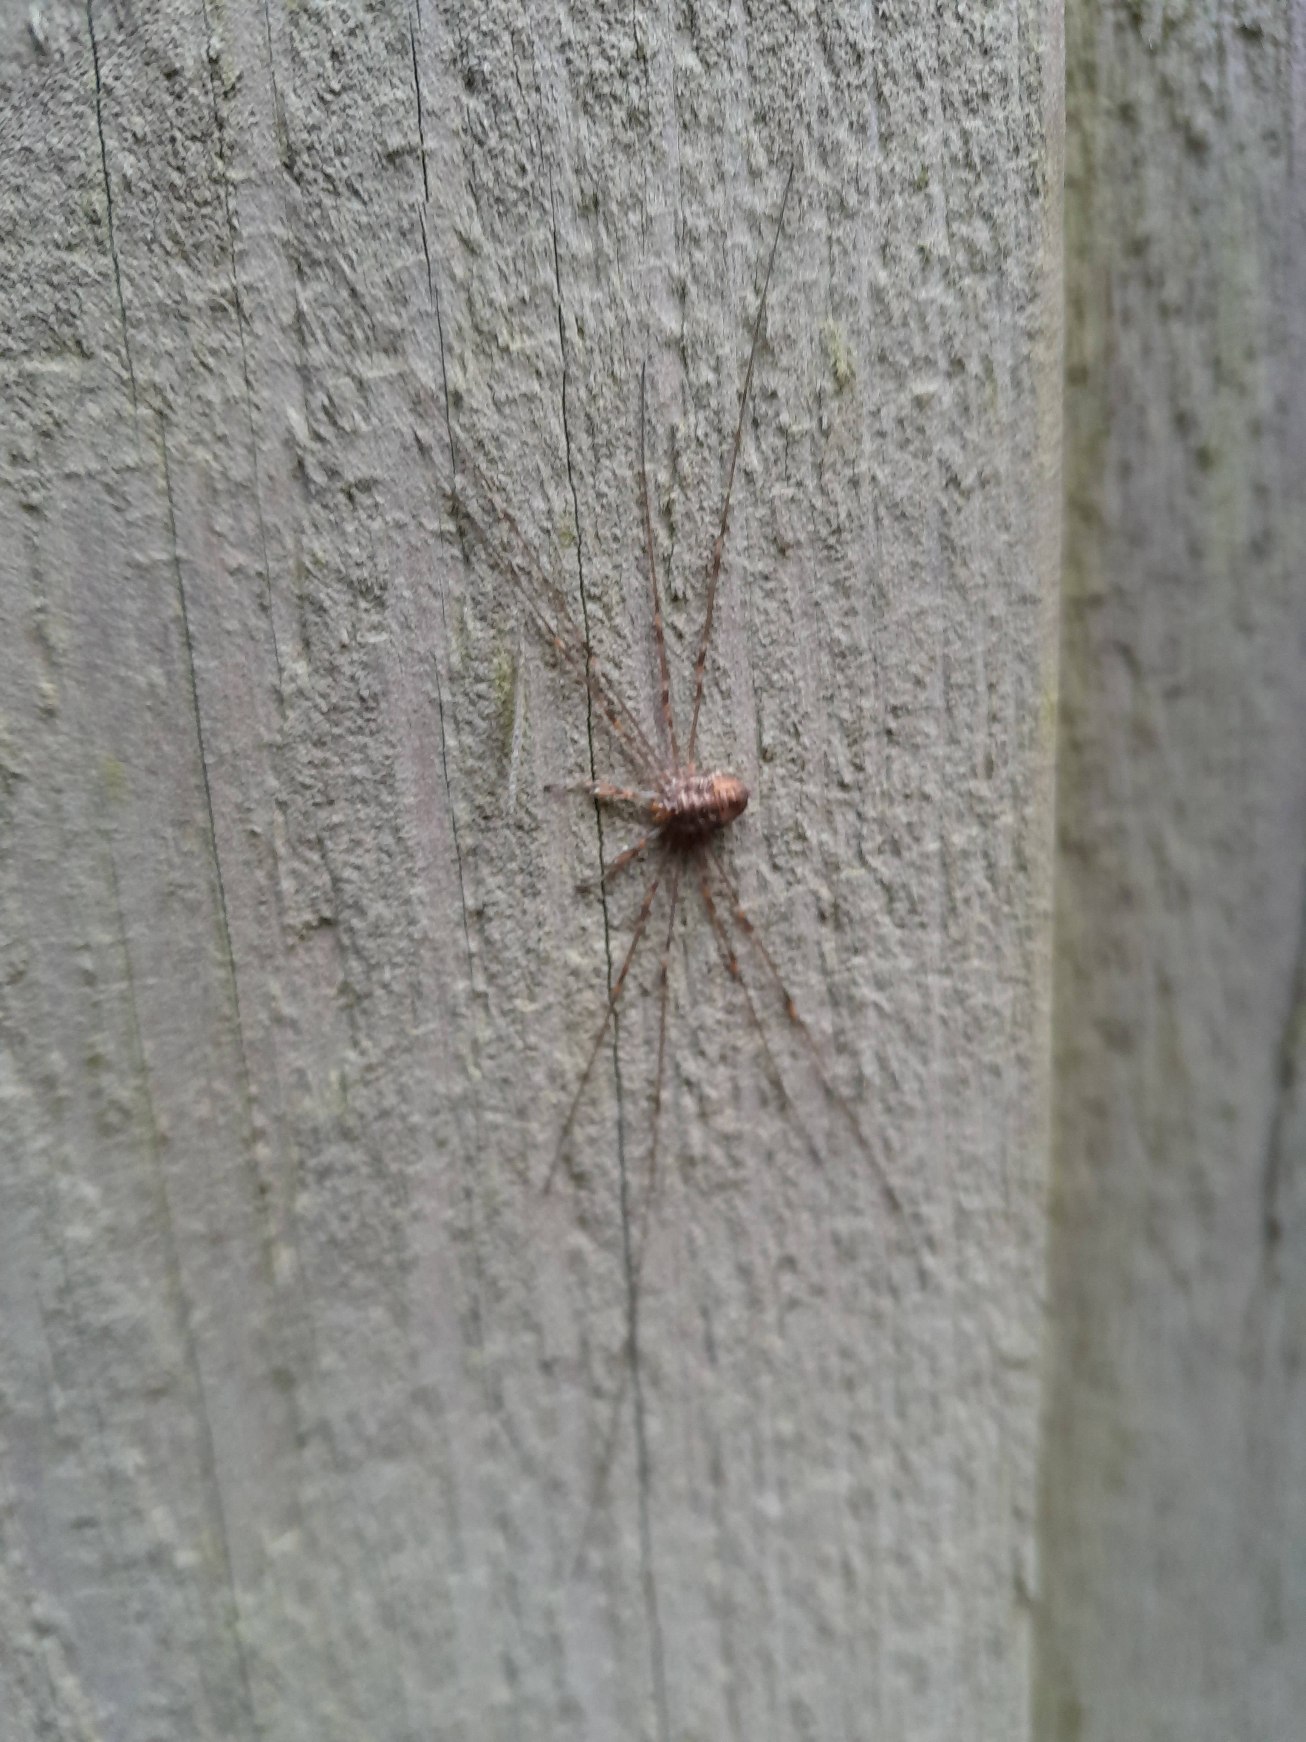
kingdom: Animalia
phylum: Arthropoda
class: Arachnida
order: Opiliones
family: Phalangiidae
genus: Dicranopalpus
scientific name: Dicranopalpus ramosus
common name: Gaffelmejer
